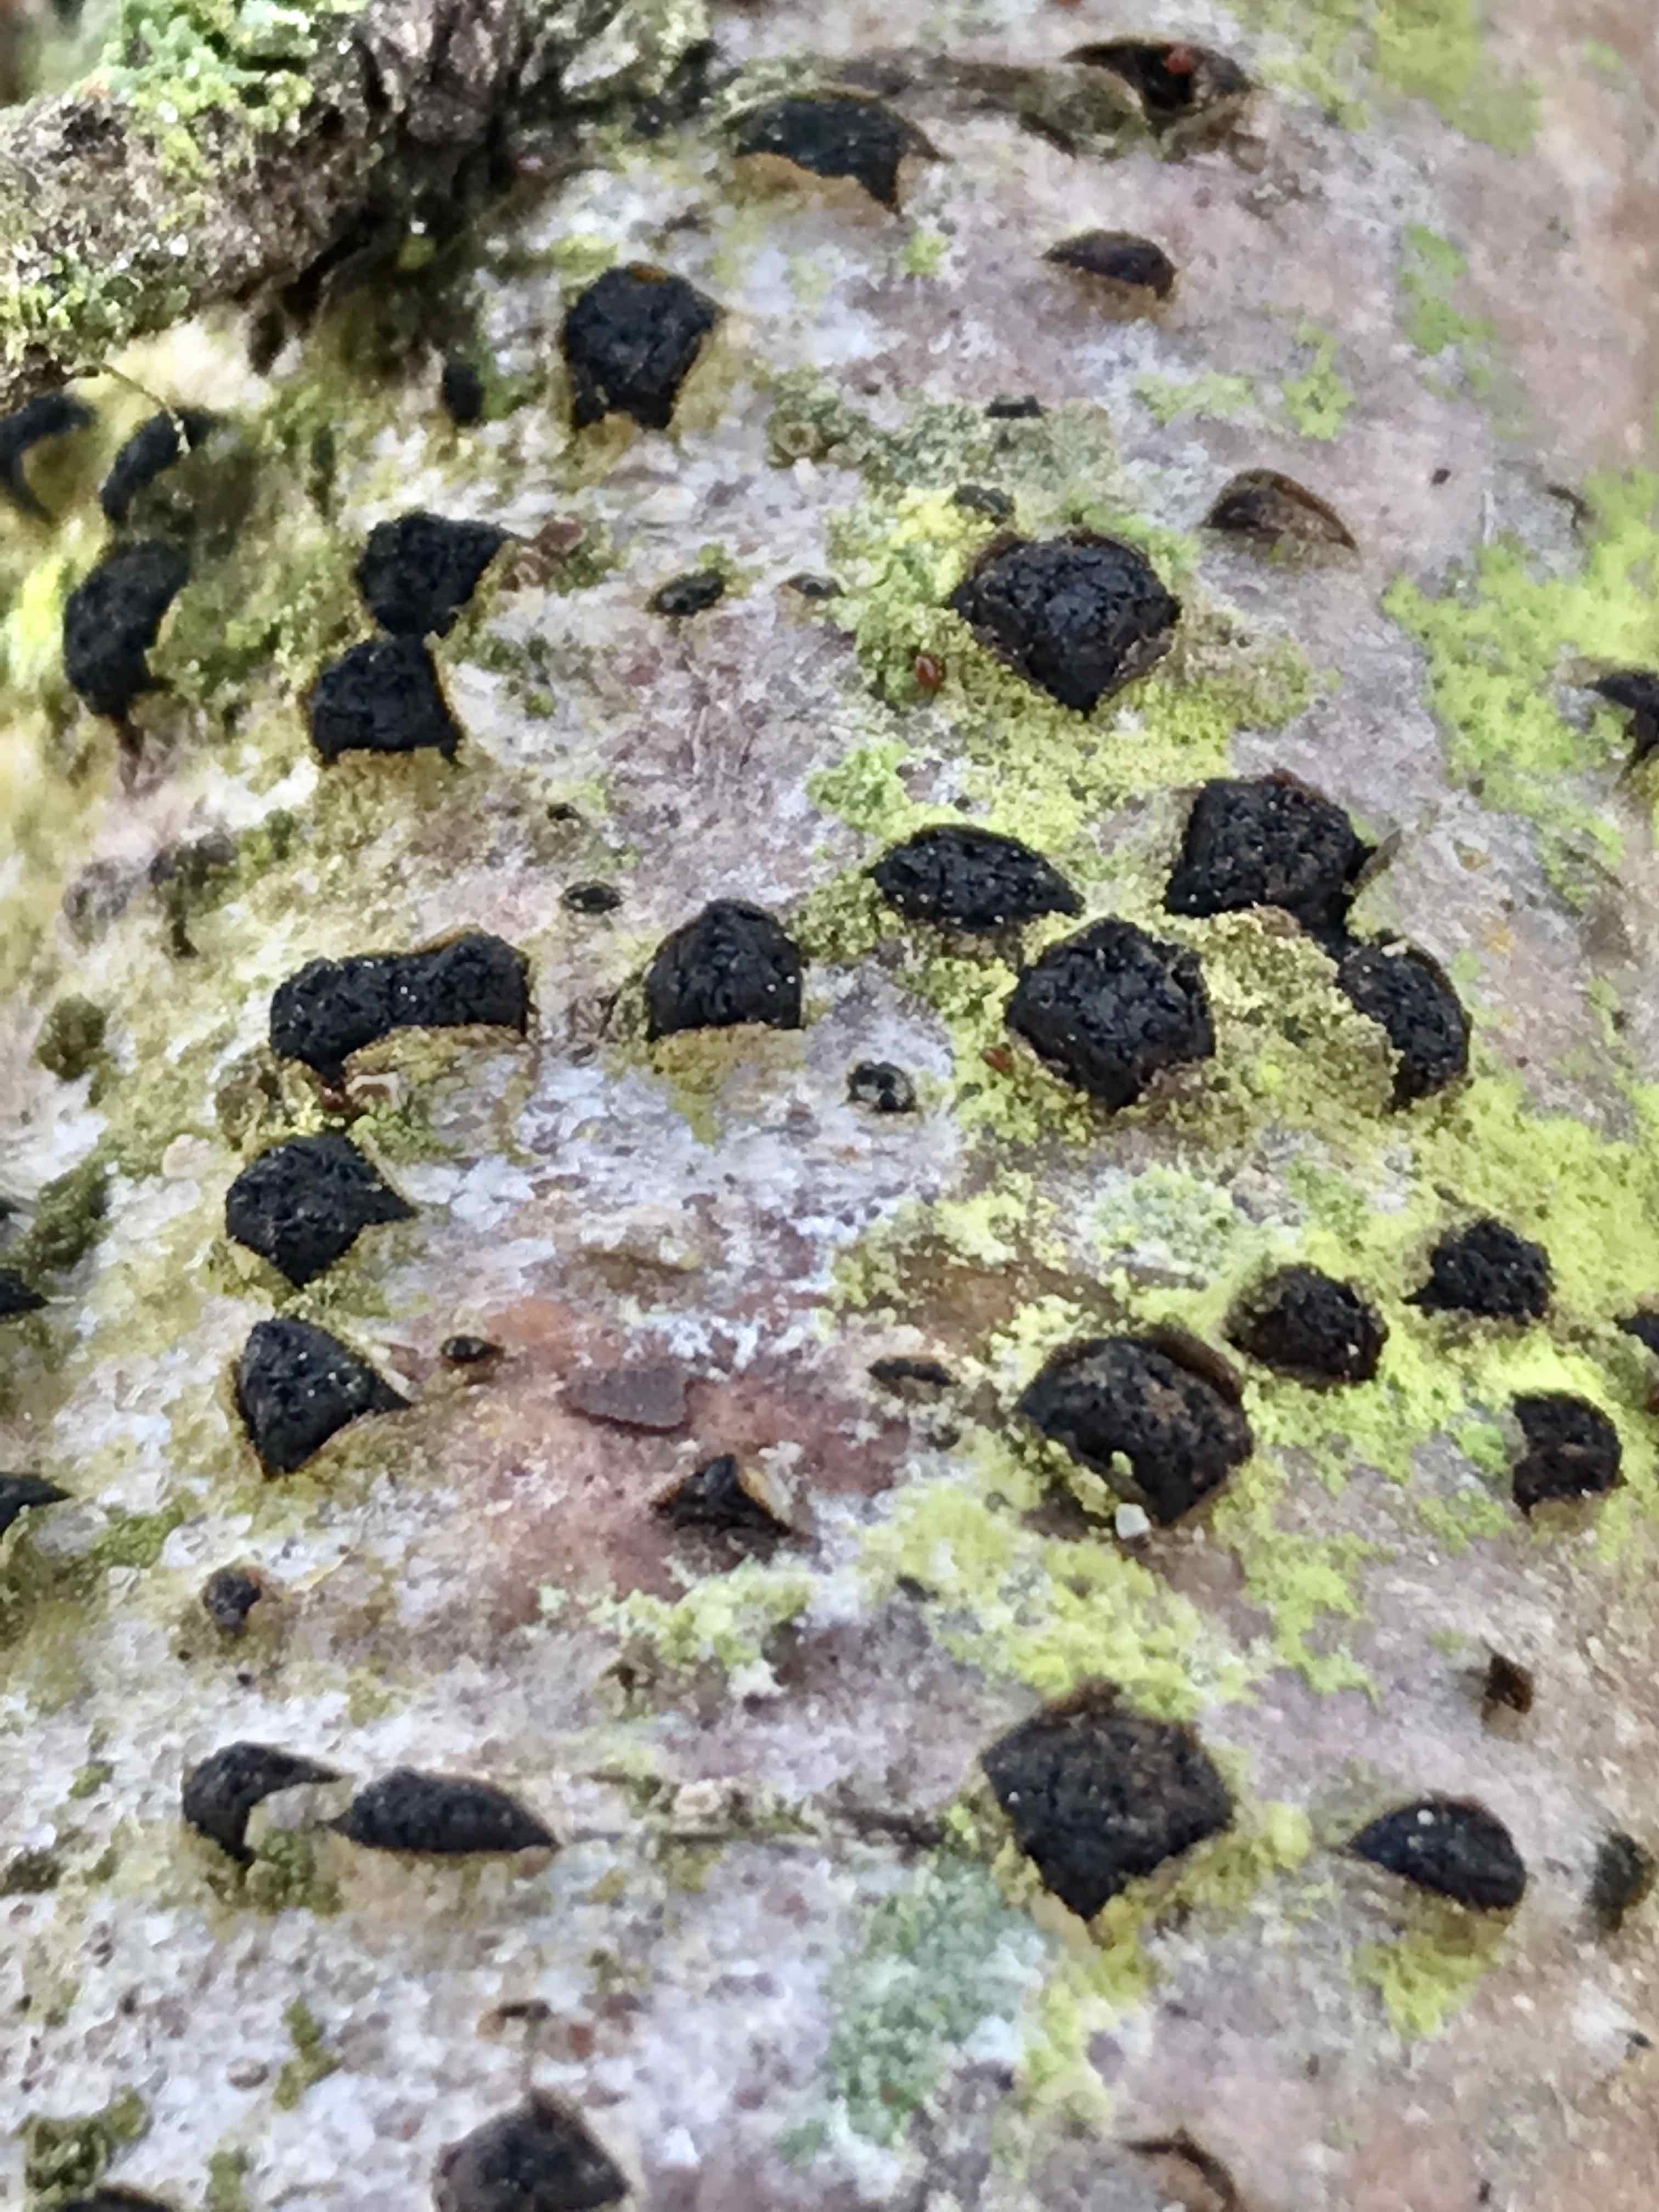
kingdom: Fungi
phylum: Ascomycota
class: Sordariomycetes
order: Xylariales
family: Diatrypaceae
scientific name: Diatrypaceae
